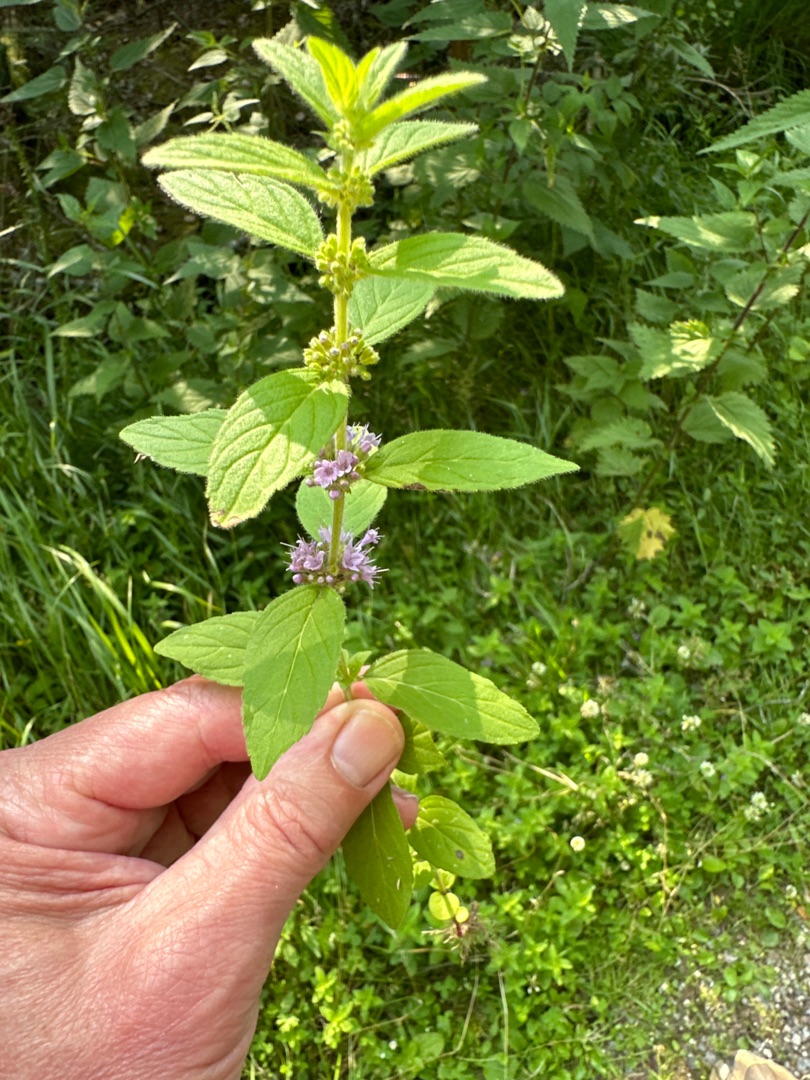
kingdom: Plantae
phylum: Tracheophyta
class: Magnoliopsida
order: Lamiales
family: Lamiaceae
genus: Mentha
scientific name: Mentha arvensis
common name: Ager-mynte
